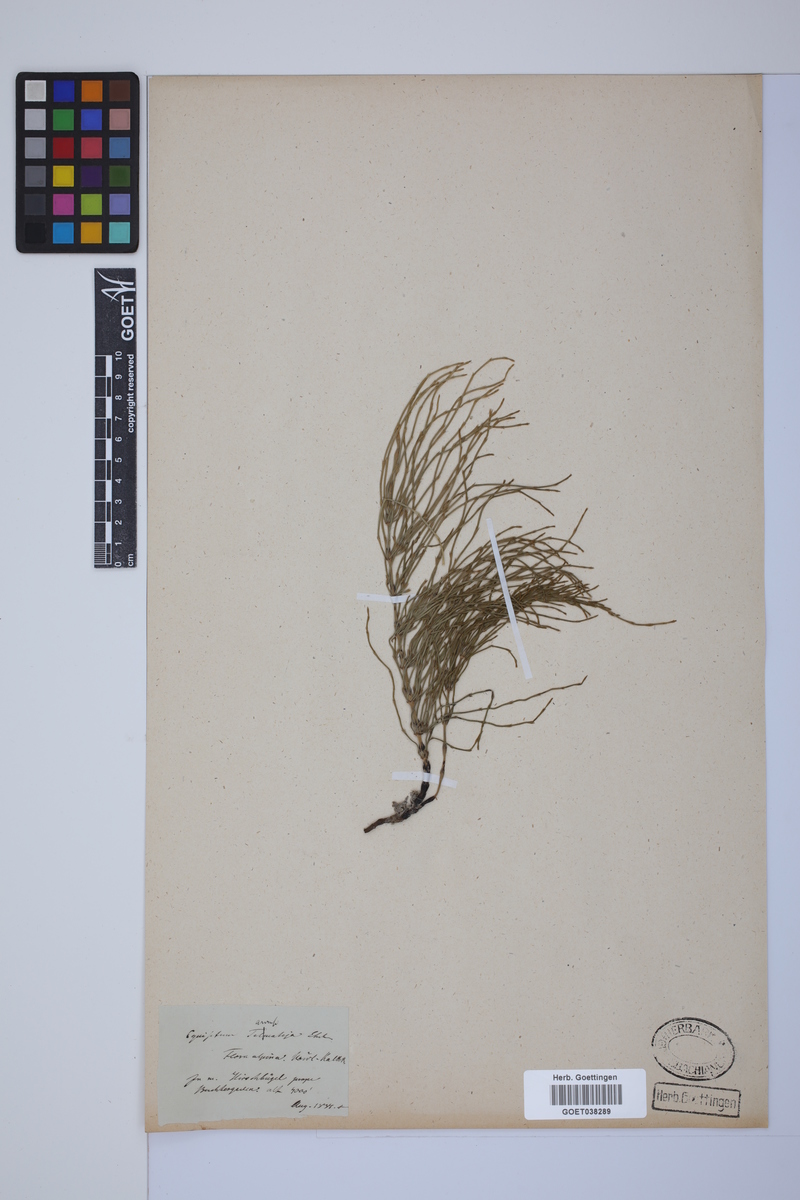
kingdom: Plantae
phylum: Tracheophyta
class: Polypodiopsida
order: Equisetales
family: Equisetaceae
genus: Equisetum
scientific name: Equisetum arvense
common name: Field horsetail
